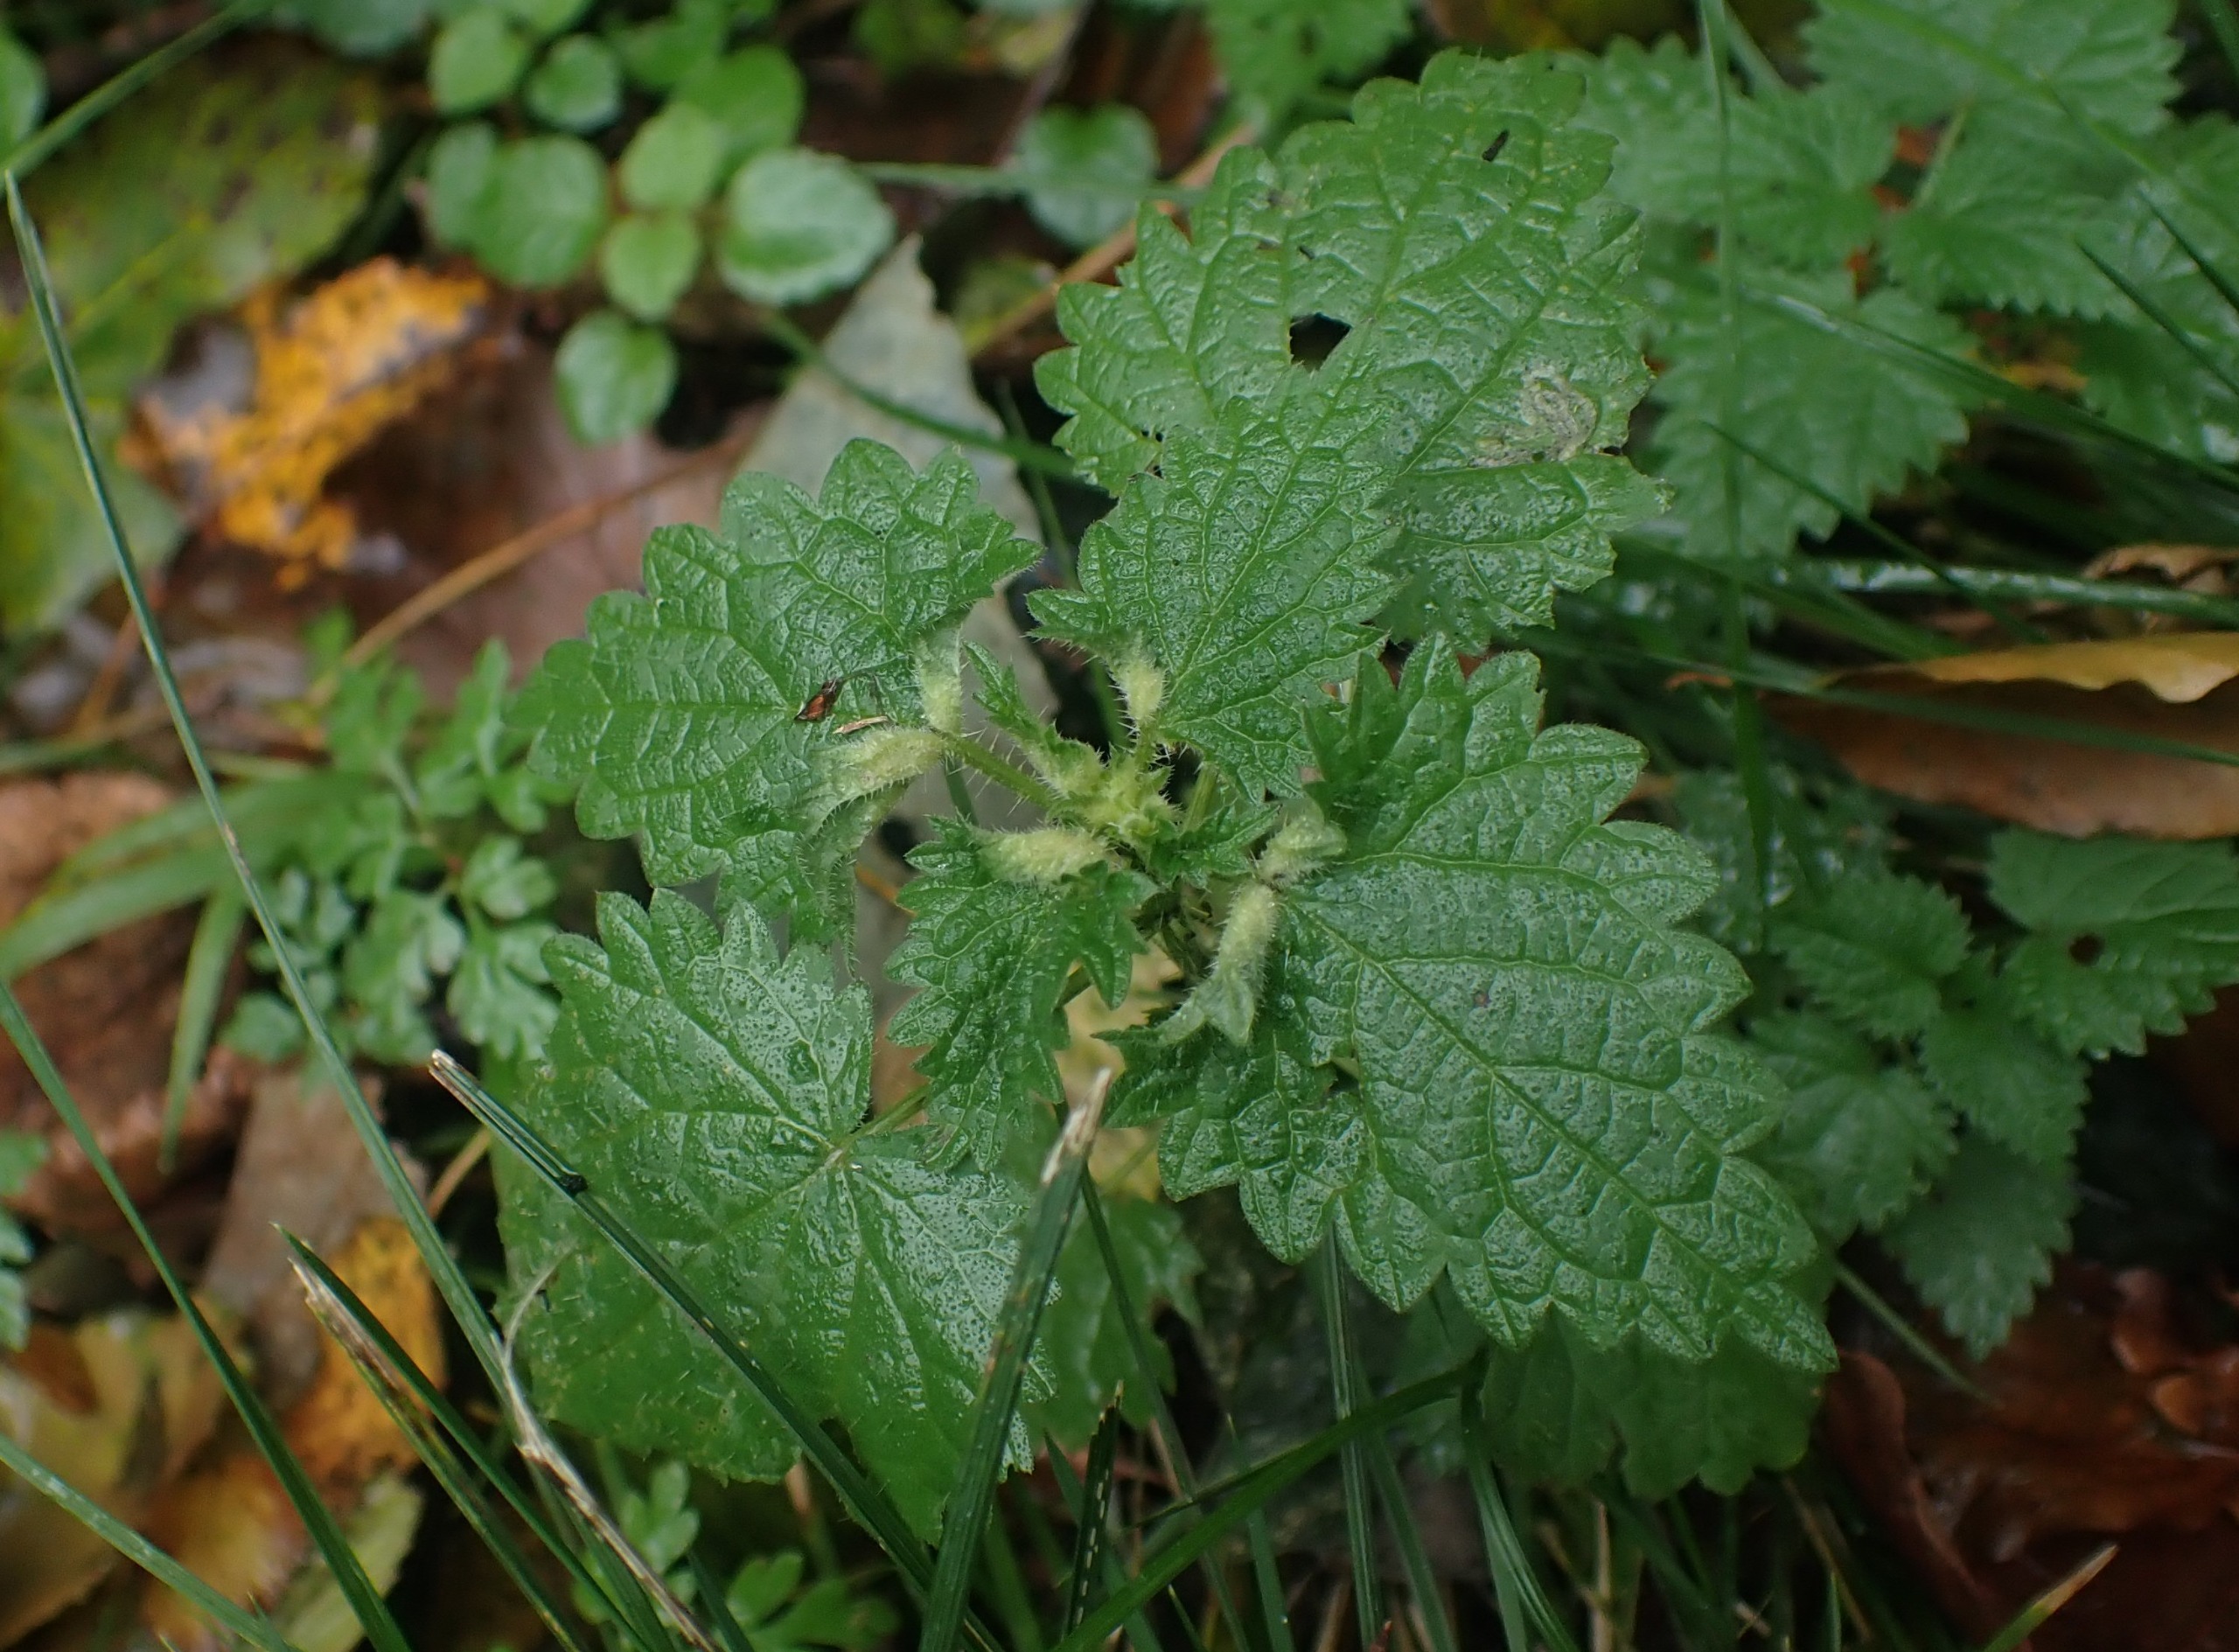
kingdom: Animalia
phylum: Arthropoda
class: Insecta
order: Diptera
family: Cecidomyiidae
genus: Dasineura
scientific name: Dasineura dioicae
